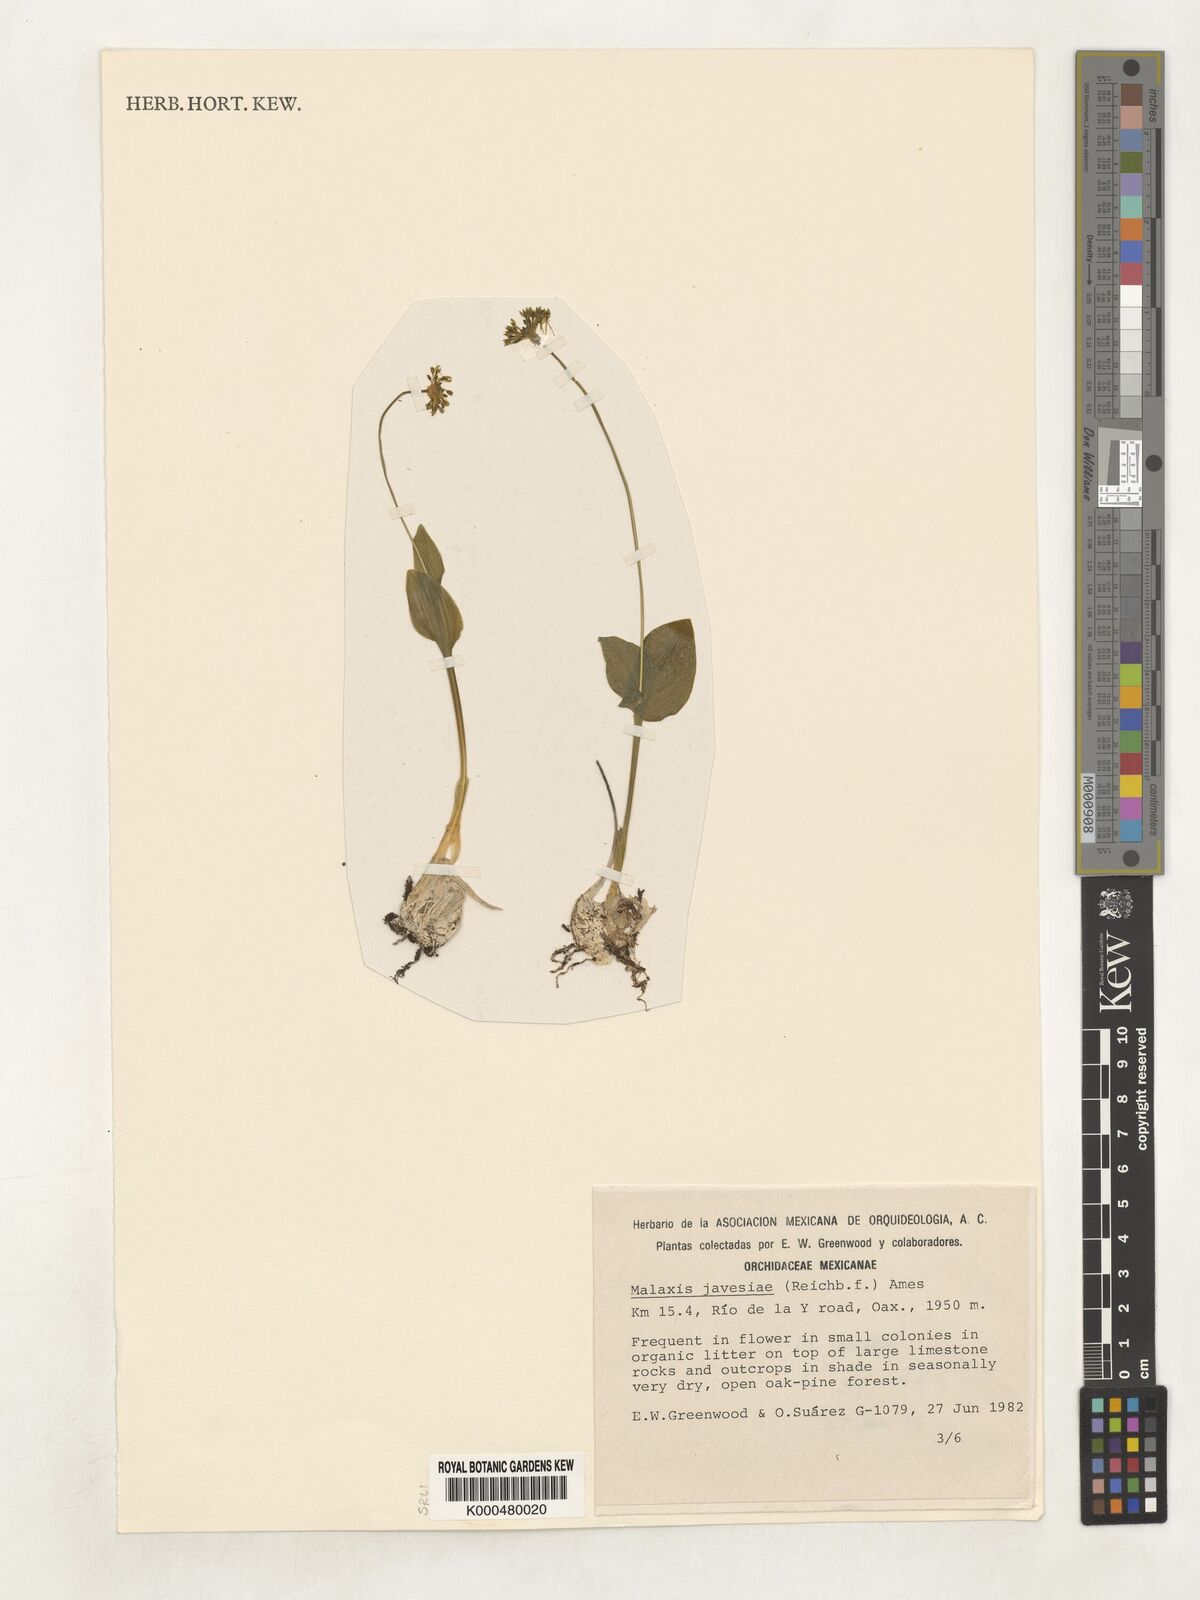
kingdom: Plantae
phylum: Tracheophyta
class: Liliopsida
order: Asparagales
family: Orchidaceae
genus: Malaxis
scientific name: Malaxis javesiae
